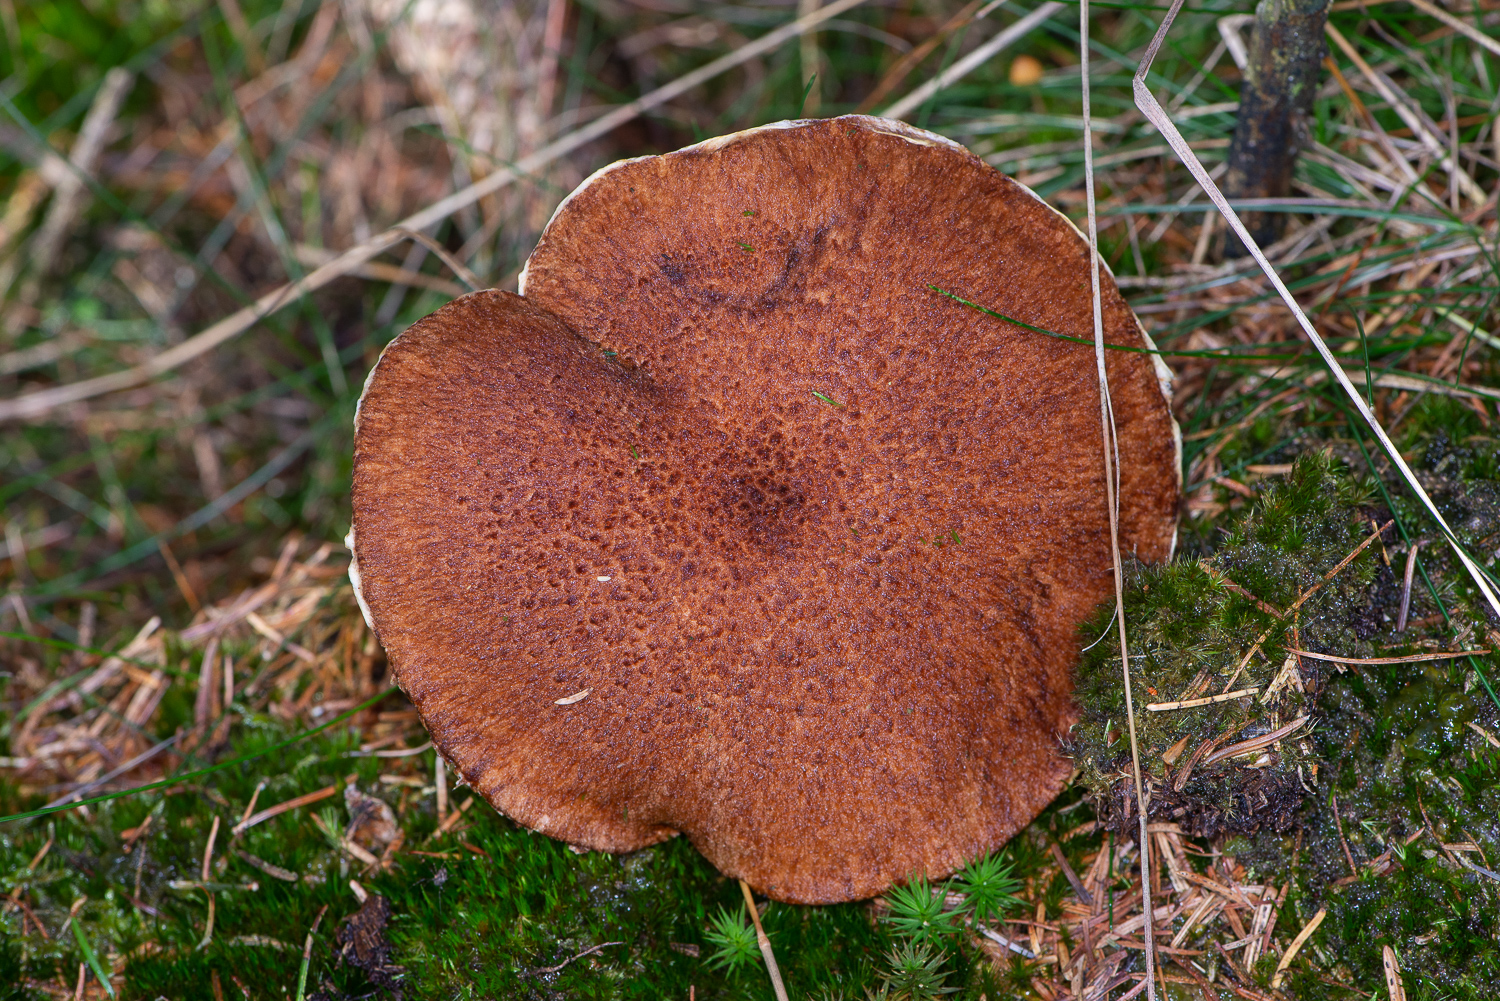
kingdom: Fungi
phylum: Basidiomycota
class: Agaricomycetes
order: Boletales
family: Suillaceae
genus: Suillus
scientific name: Suillus cavipes
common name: hulstokket slimrørhat
